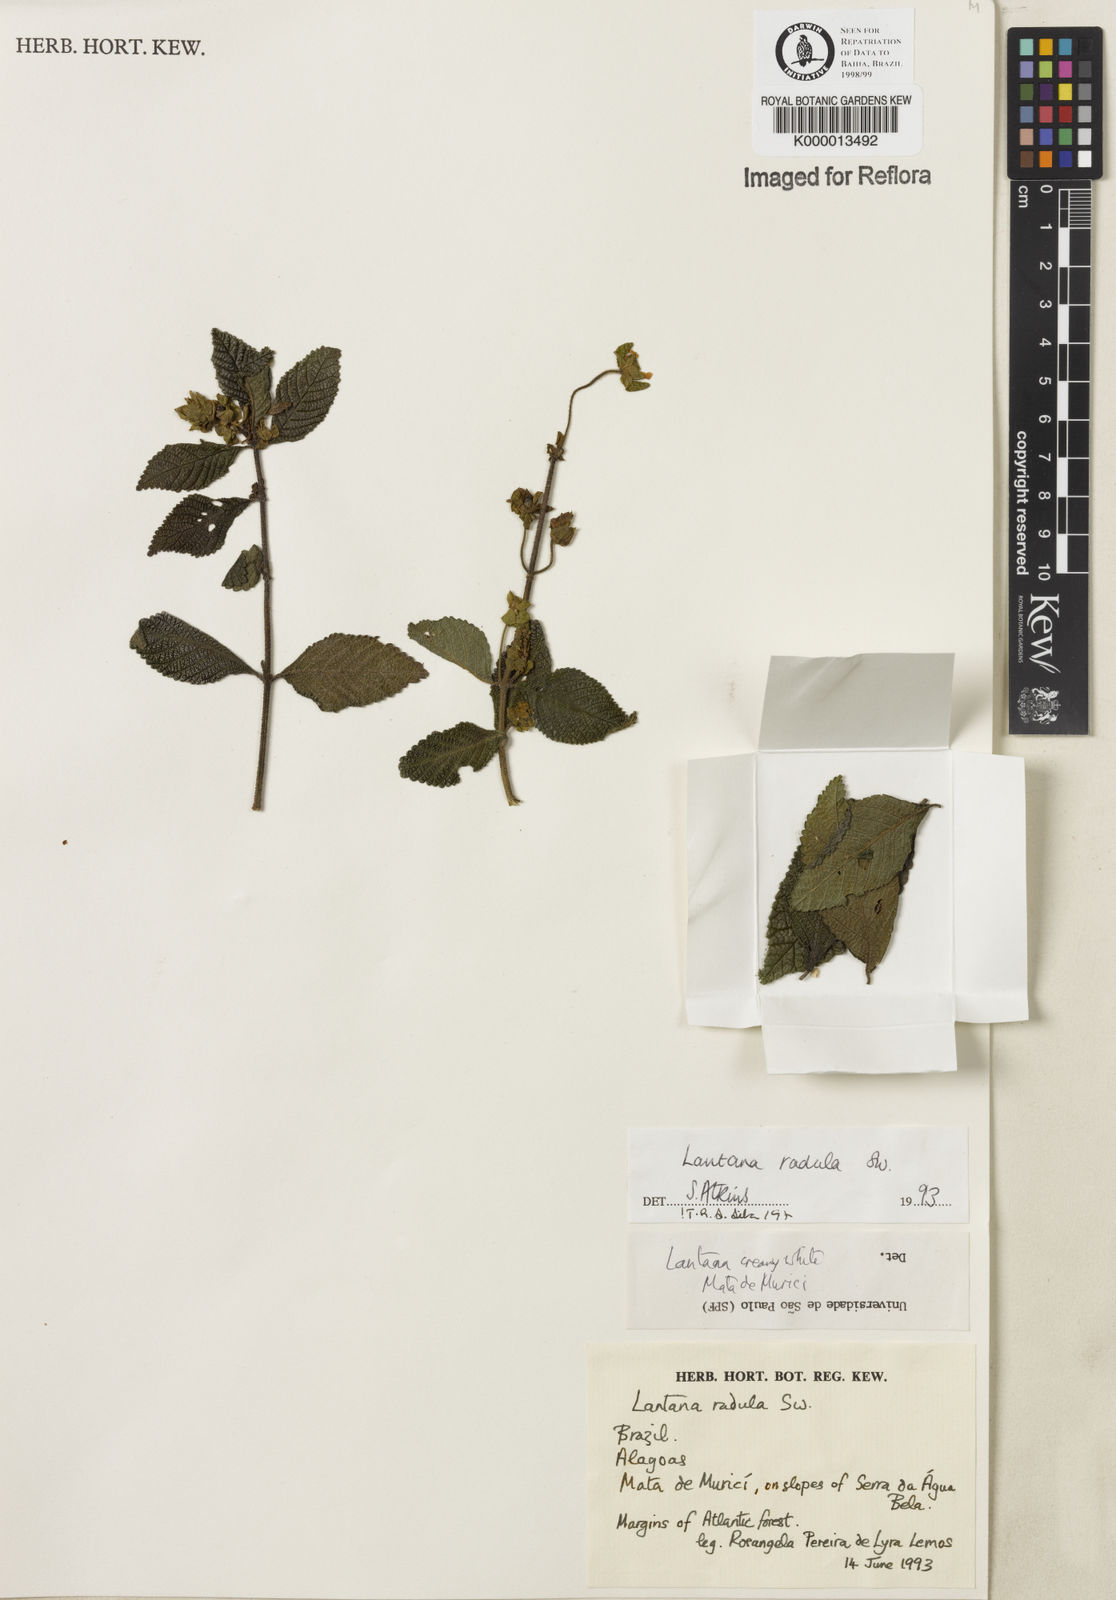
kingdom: Plantae
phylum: Tracheophyta
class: Magnoliopsida
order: Lamiales
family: Verbenaceae
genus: Lantana
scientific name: Lantana radula
